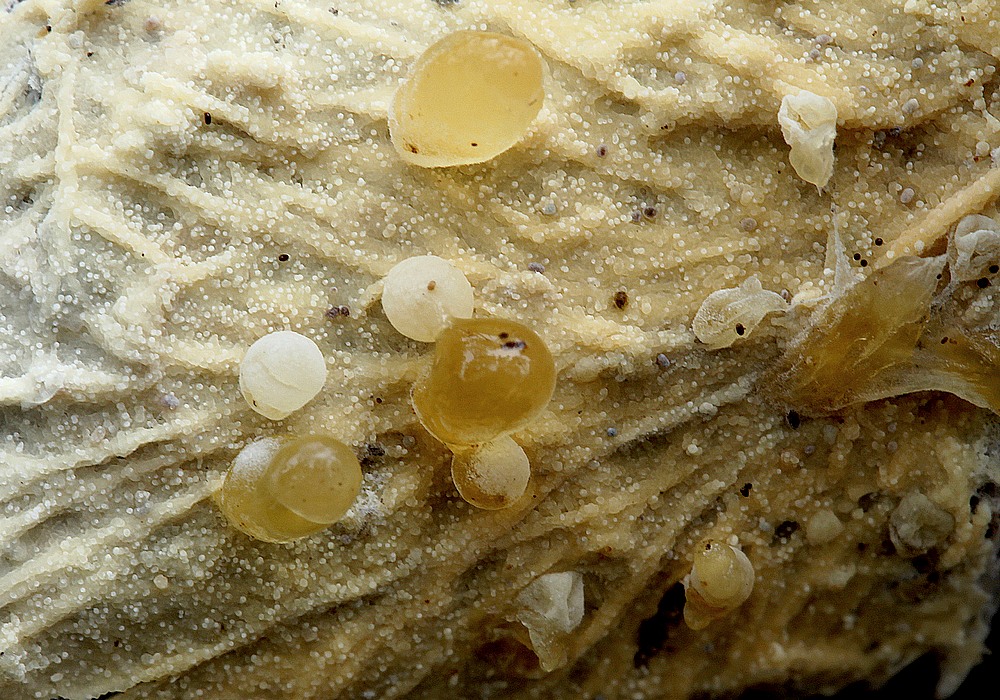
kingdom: Fungi
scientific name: Fungi
